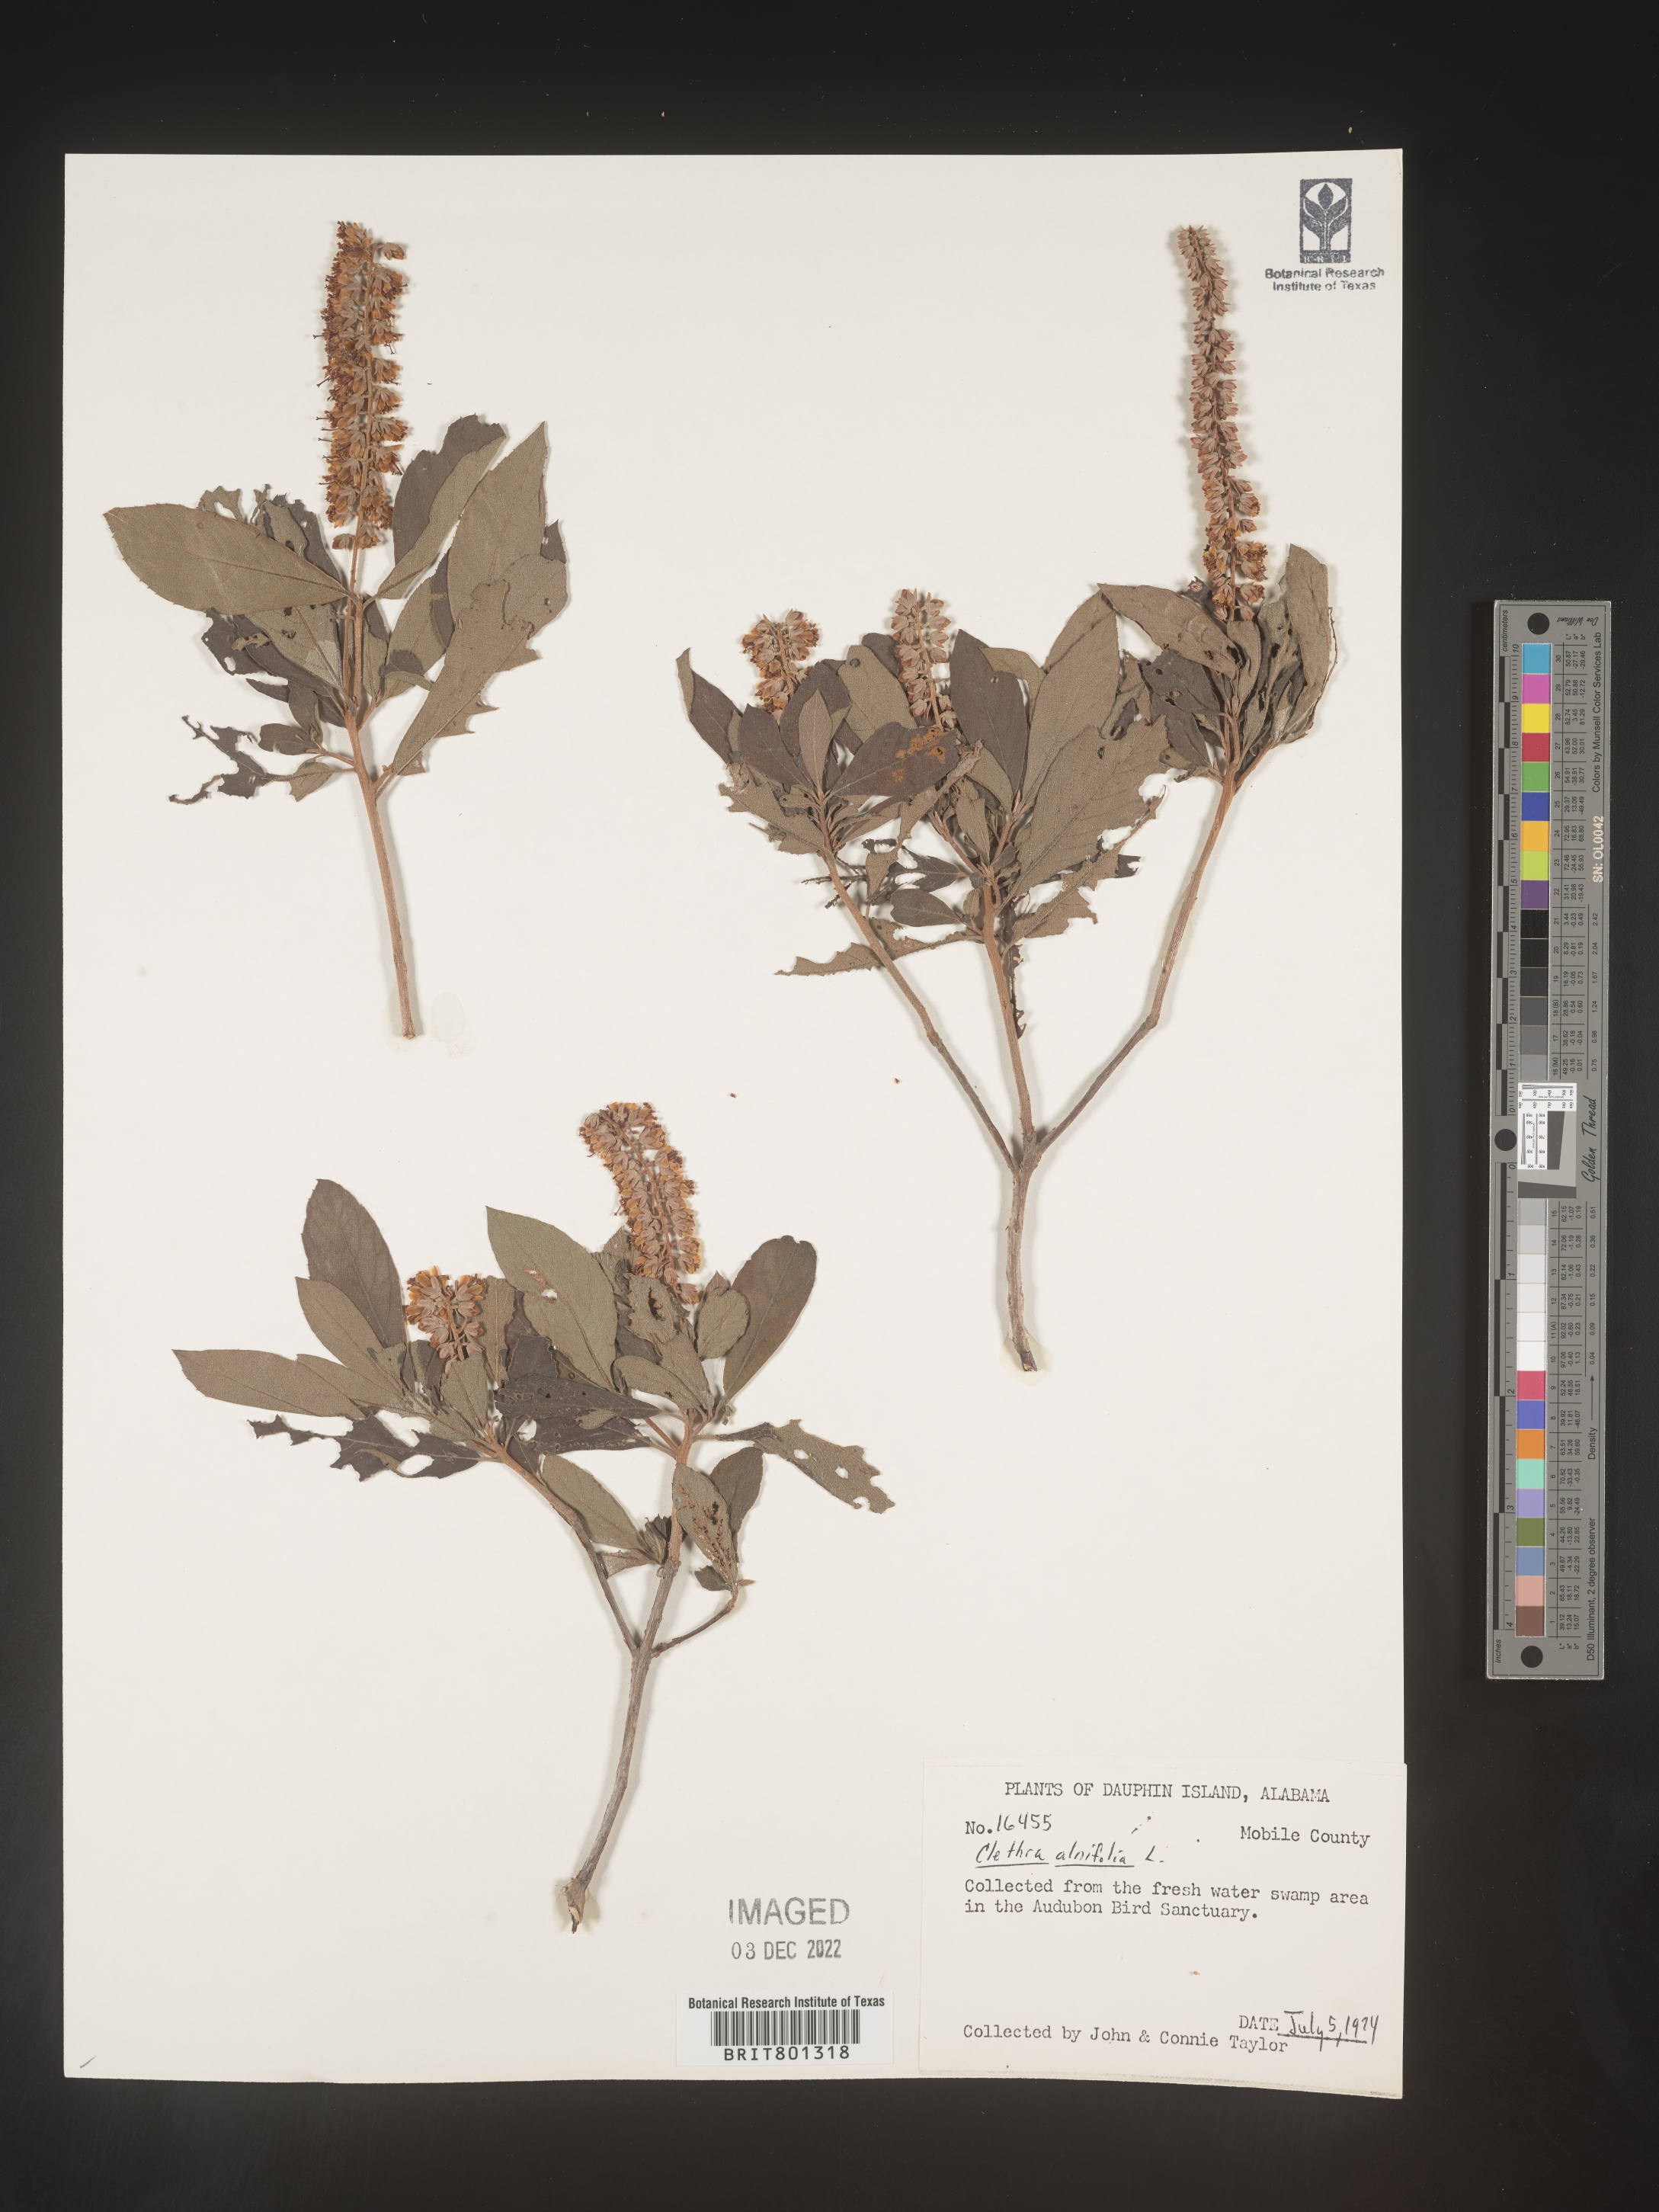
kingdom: Plantae
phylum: Tracheophyta
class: Magnoliopsida
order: Ericales
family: Clethraceae
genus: Clethra
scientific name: Clethra alnifolia
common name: Sweet pepperbush
